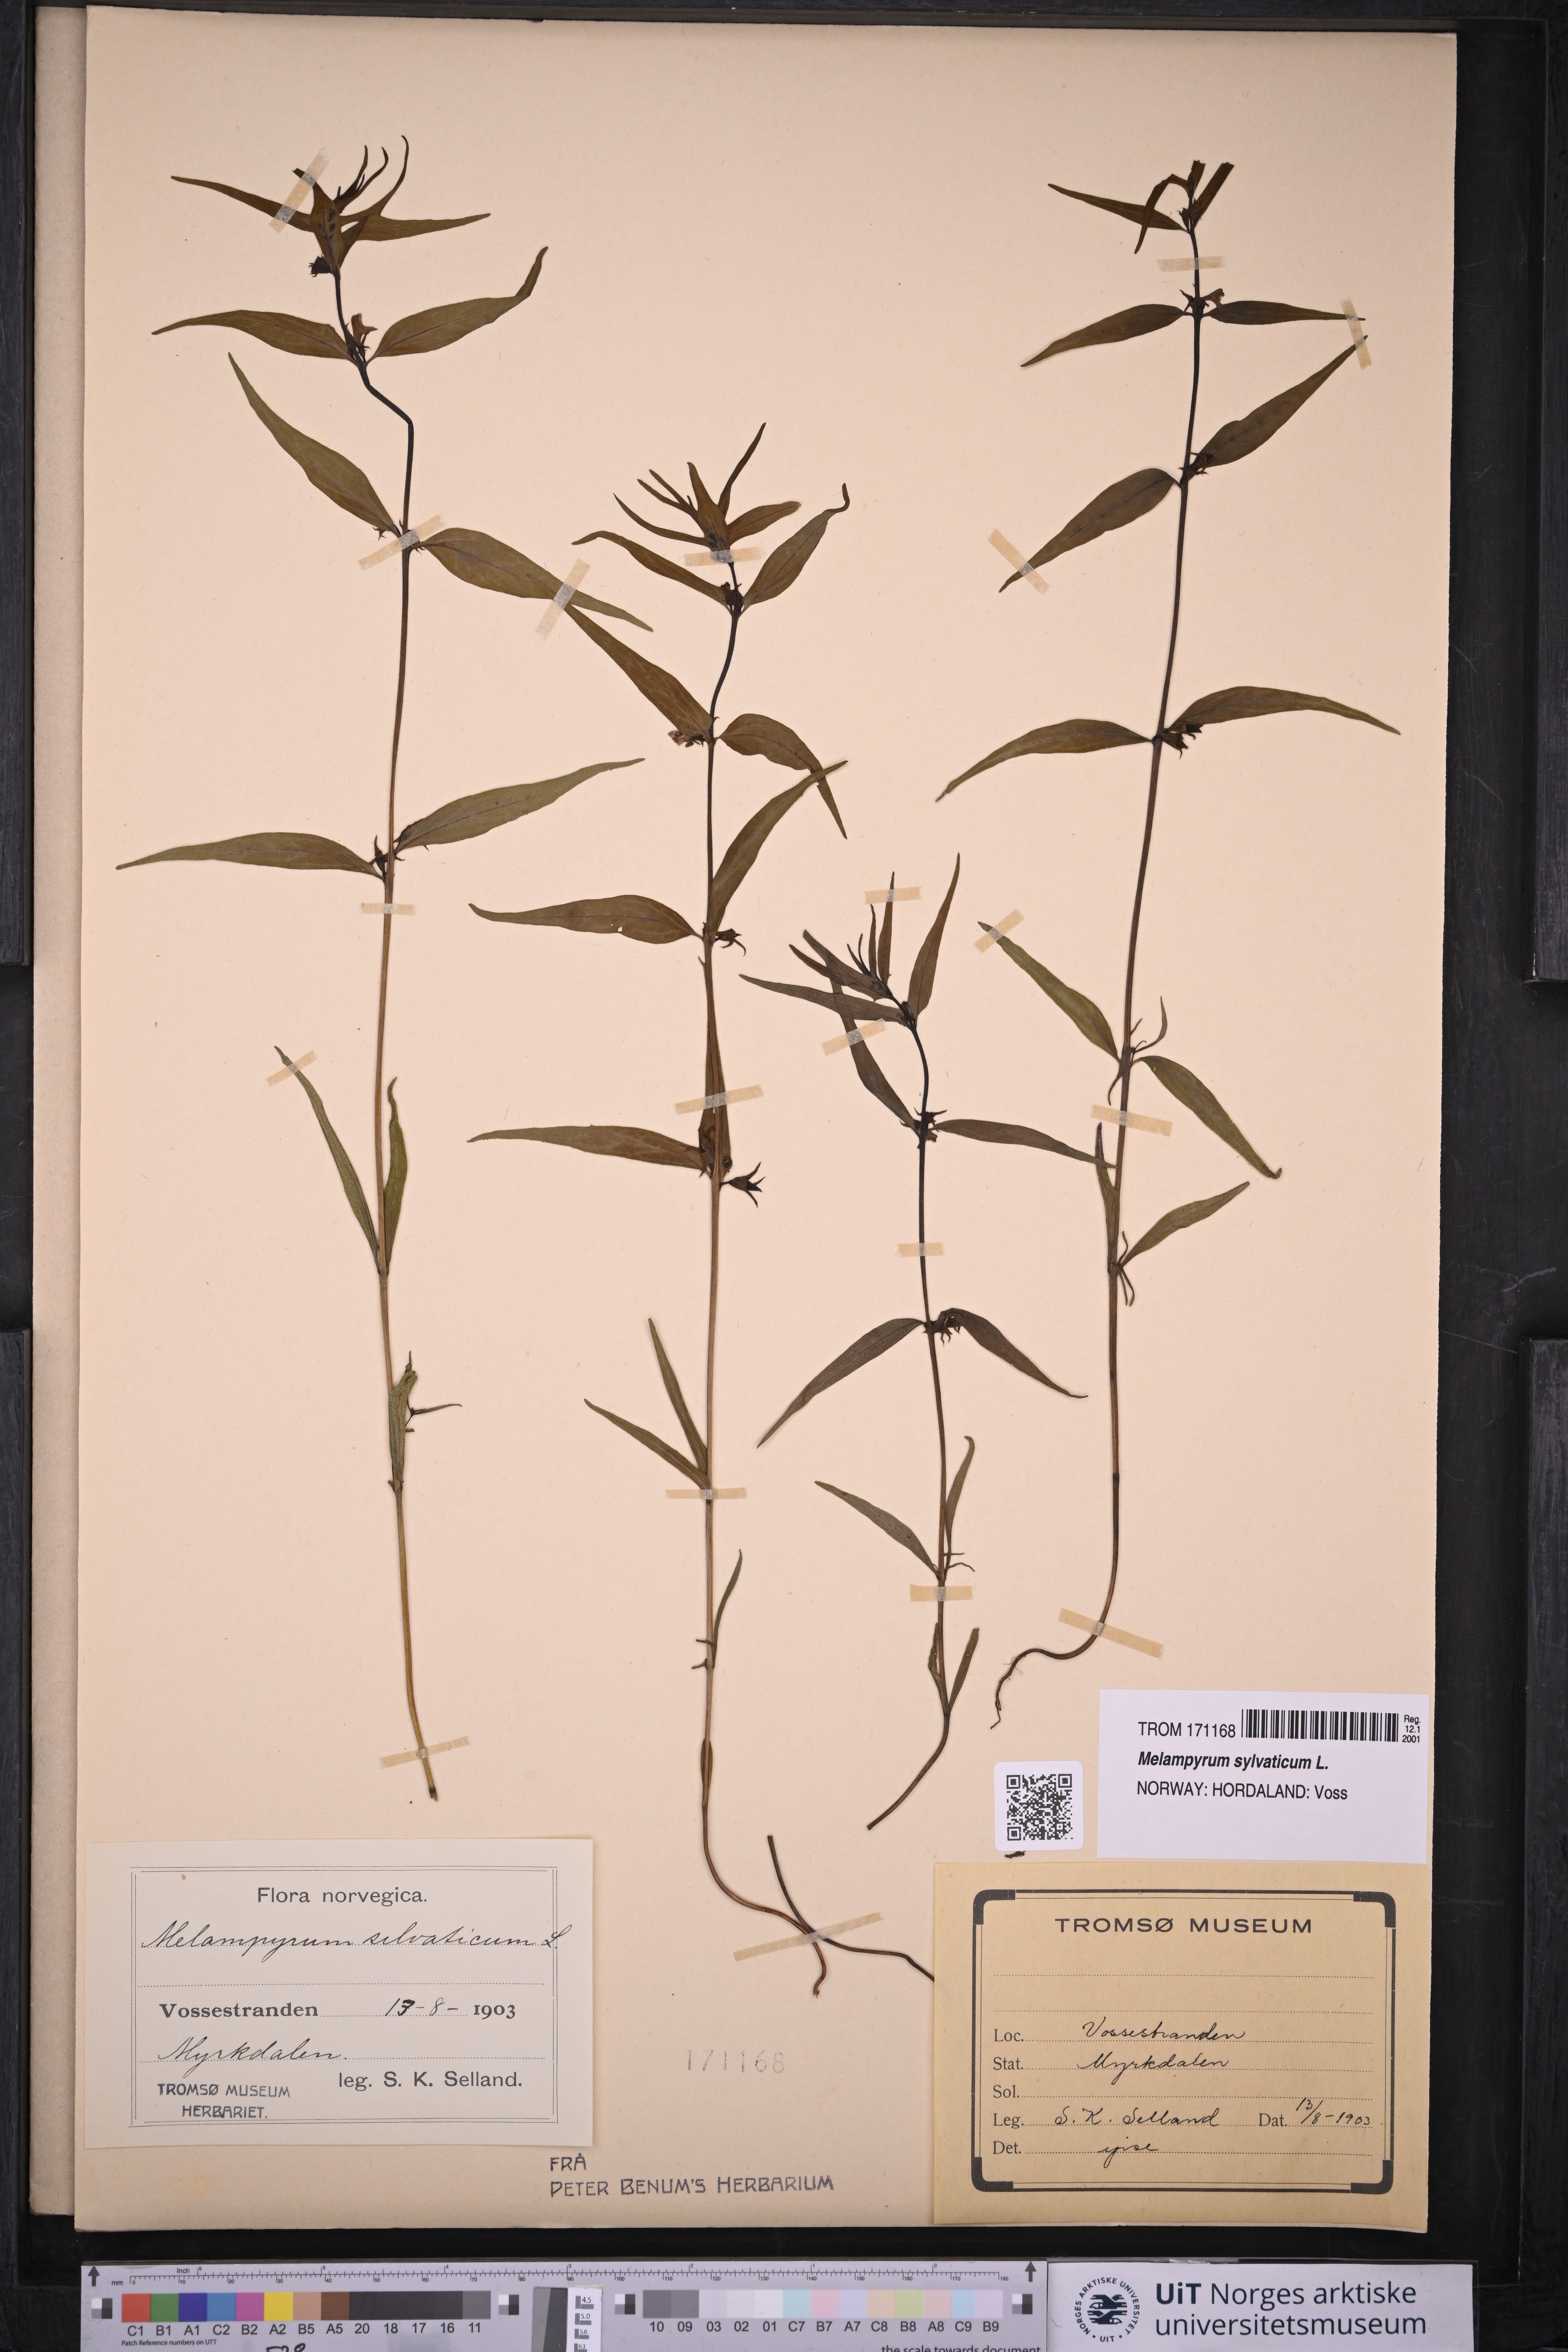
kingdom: Plantae
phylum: Tracheophyta
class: Magnoliopsida
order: Lamiales
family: Orobanchaceae
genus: Melampyrum
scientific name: Melampyrum sylvaticum
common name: Small cow-wheat
